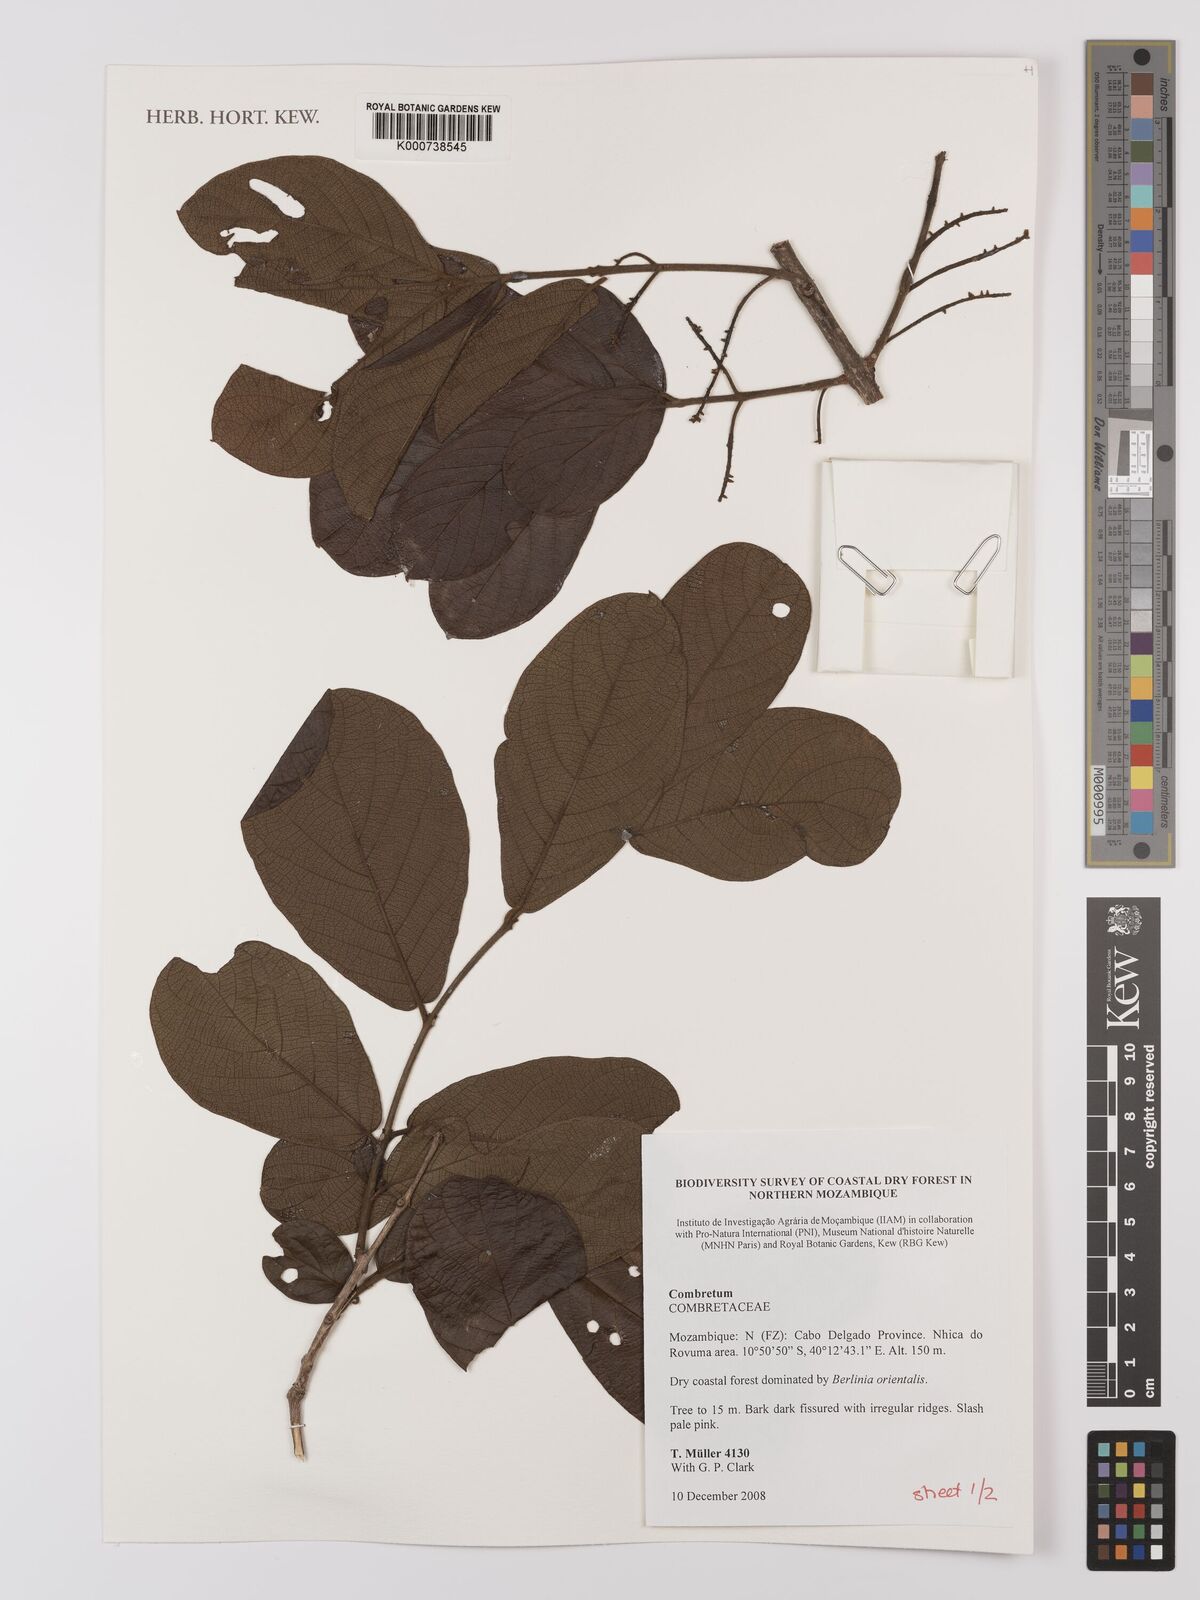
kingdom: Plantae
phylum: Tracheophyta
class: Magnoliopsida
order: Myrtales
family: Combretaceae
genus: Combretum
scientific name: Combretum
